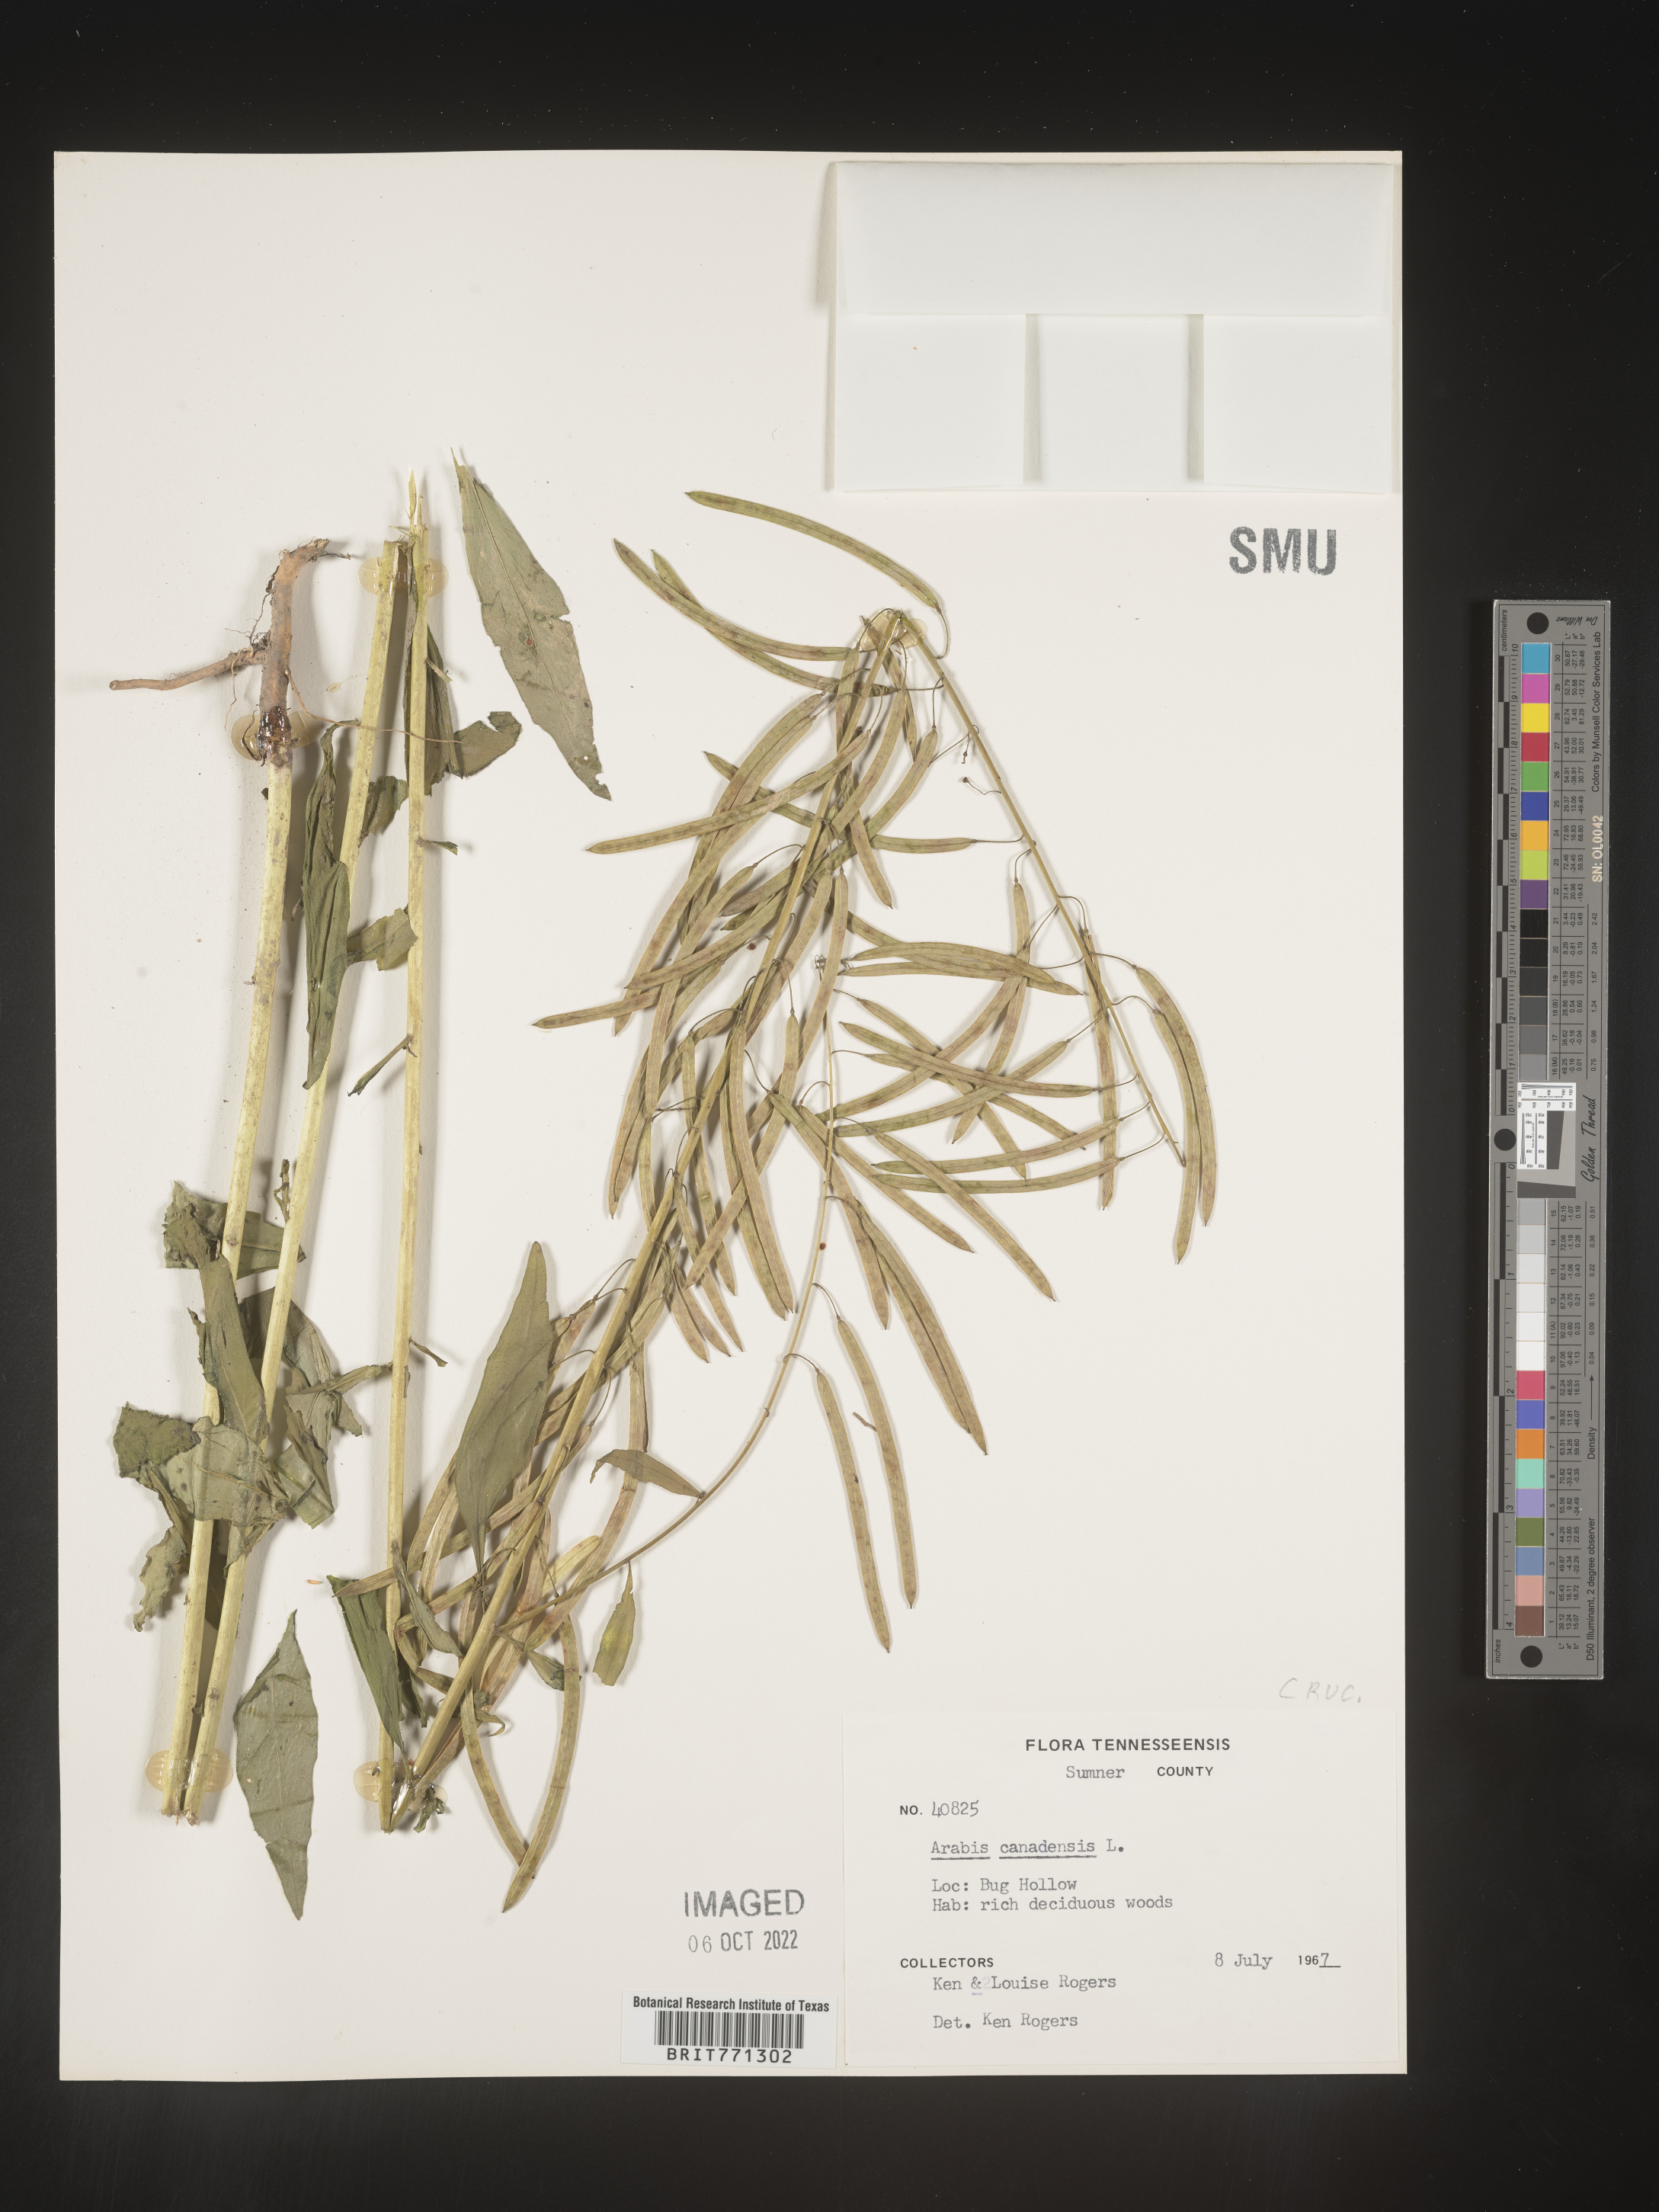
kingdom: Plantae
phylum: Tracheophyta
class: Magnoliopsida
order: Brassicales
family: Brassicaceae
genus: Borodinia
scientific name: Borodinia canadensis
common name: Sicklepod
